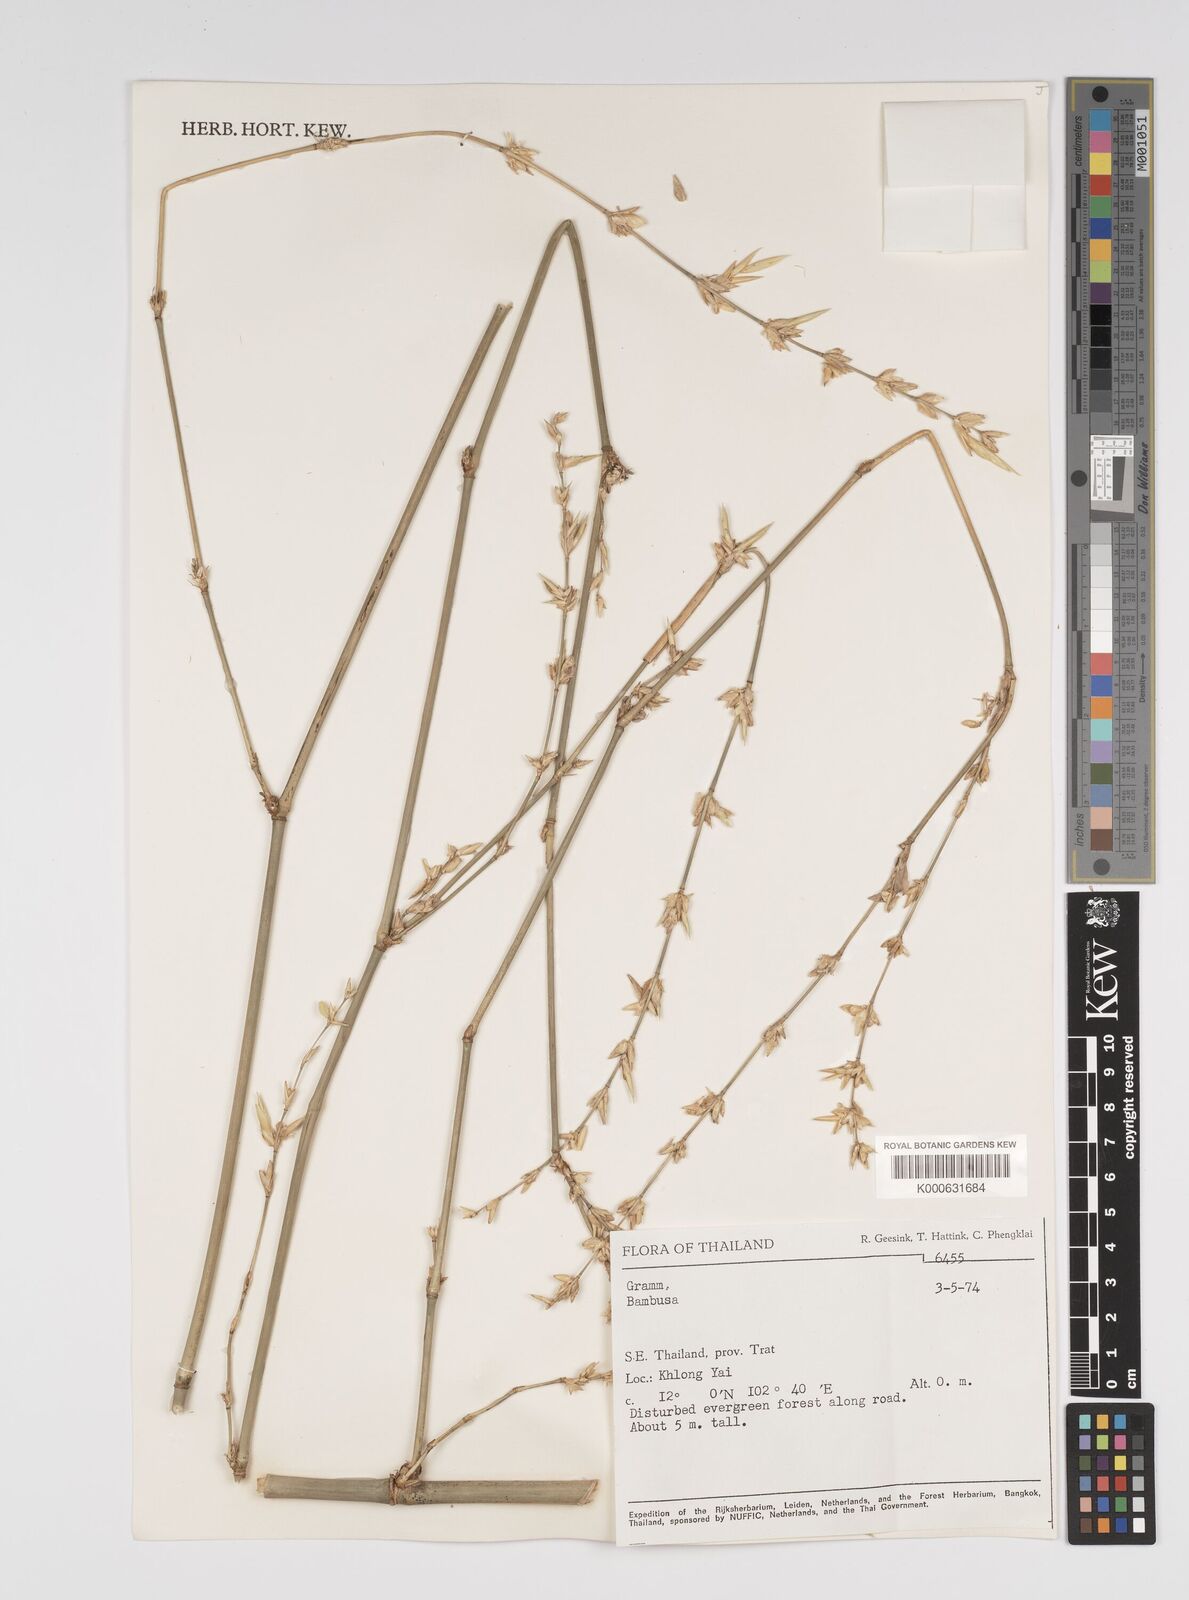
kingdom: Plantae
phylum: Tracheophyta
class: Liliopsida
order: Poales
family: Poaceae
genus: Bambusa
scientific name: Bambusa
